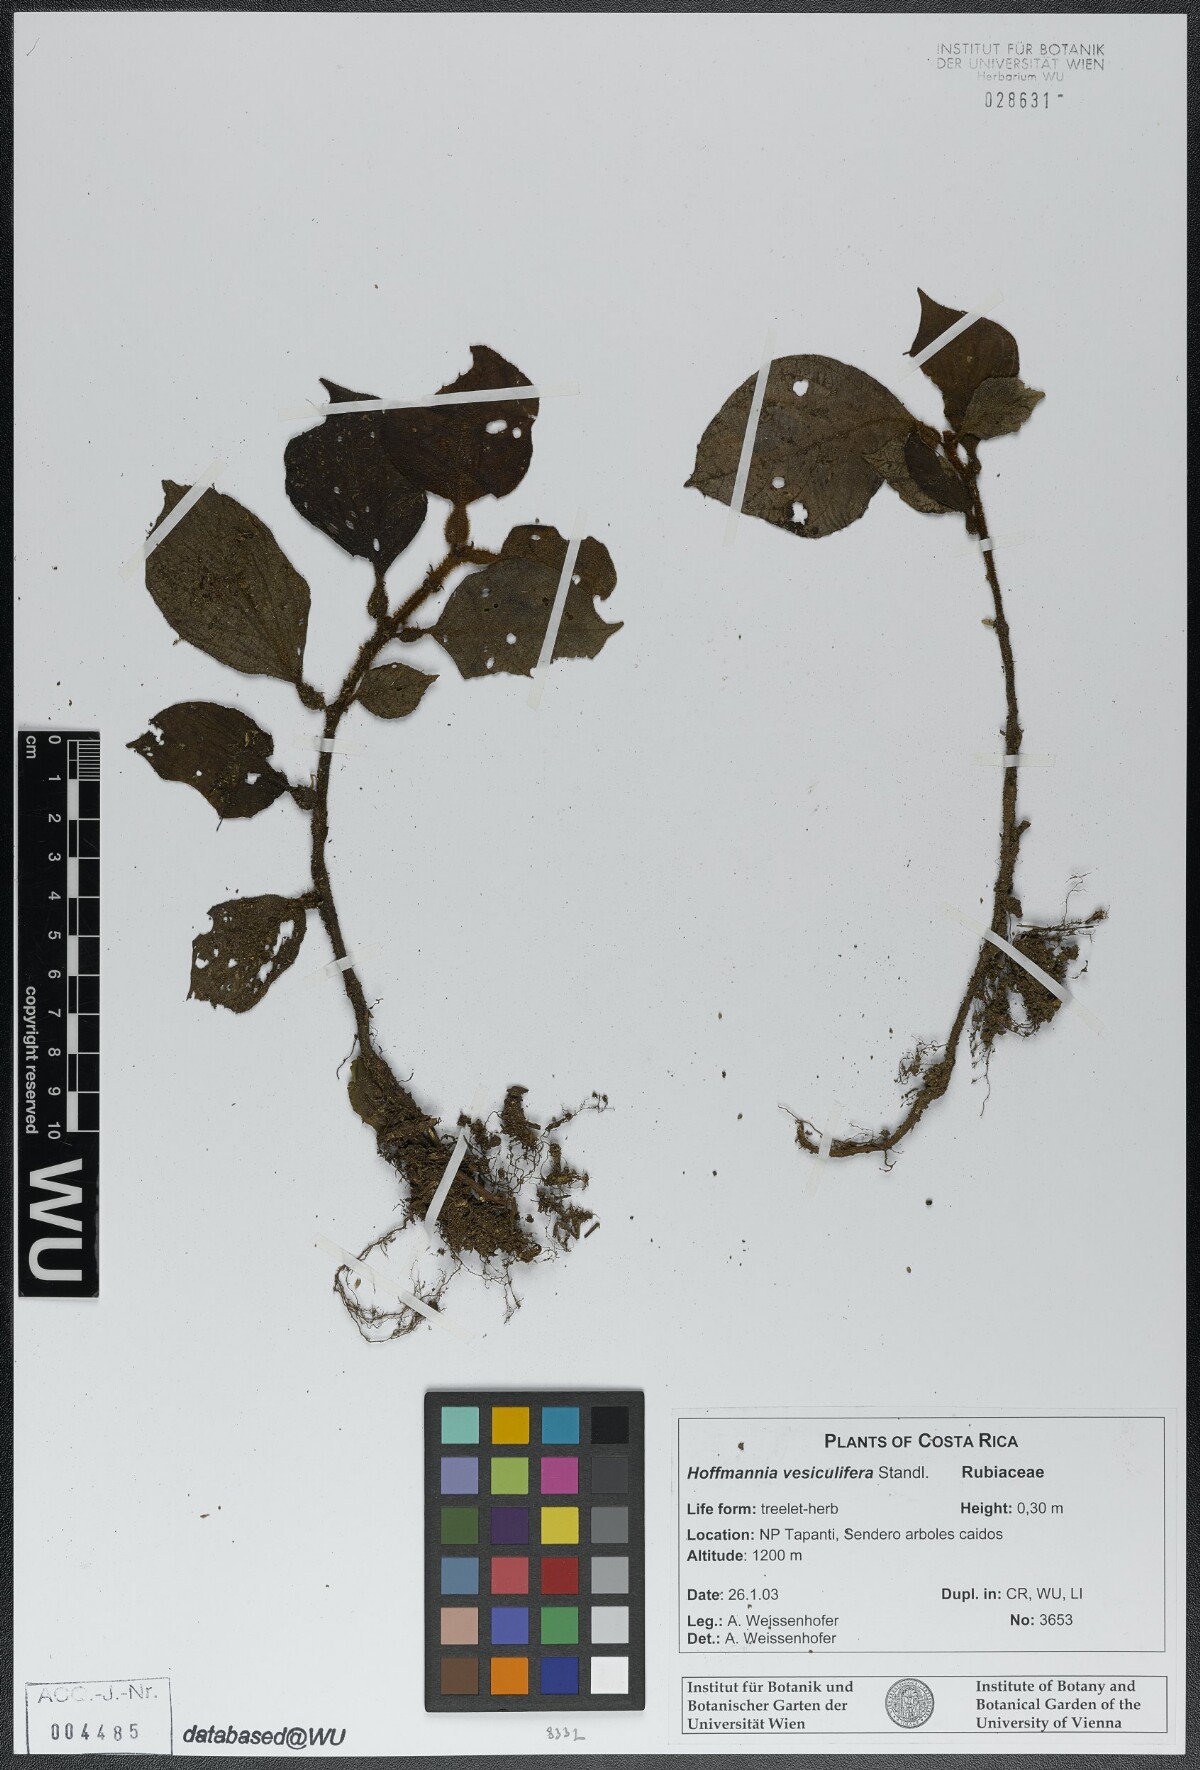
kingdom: Plantae
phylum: Tracheophyta
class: Magnoliopsida
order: Gentianales
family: Rubiaceae
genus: Hoffmannia
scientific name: Hoffmannia vesiculifera
